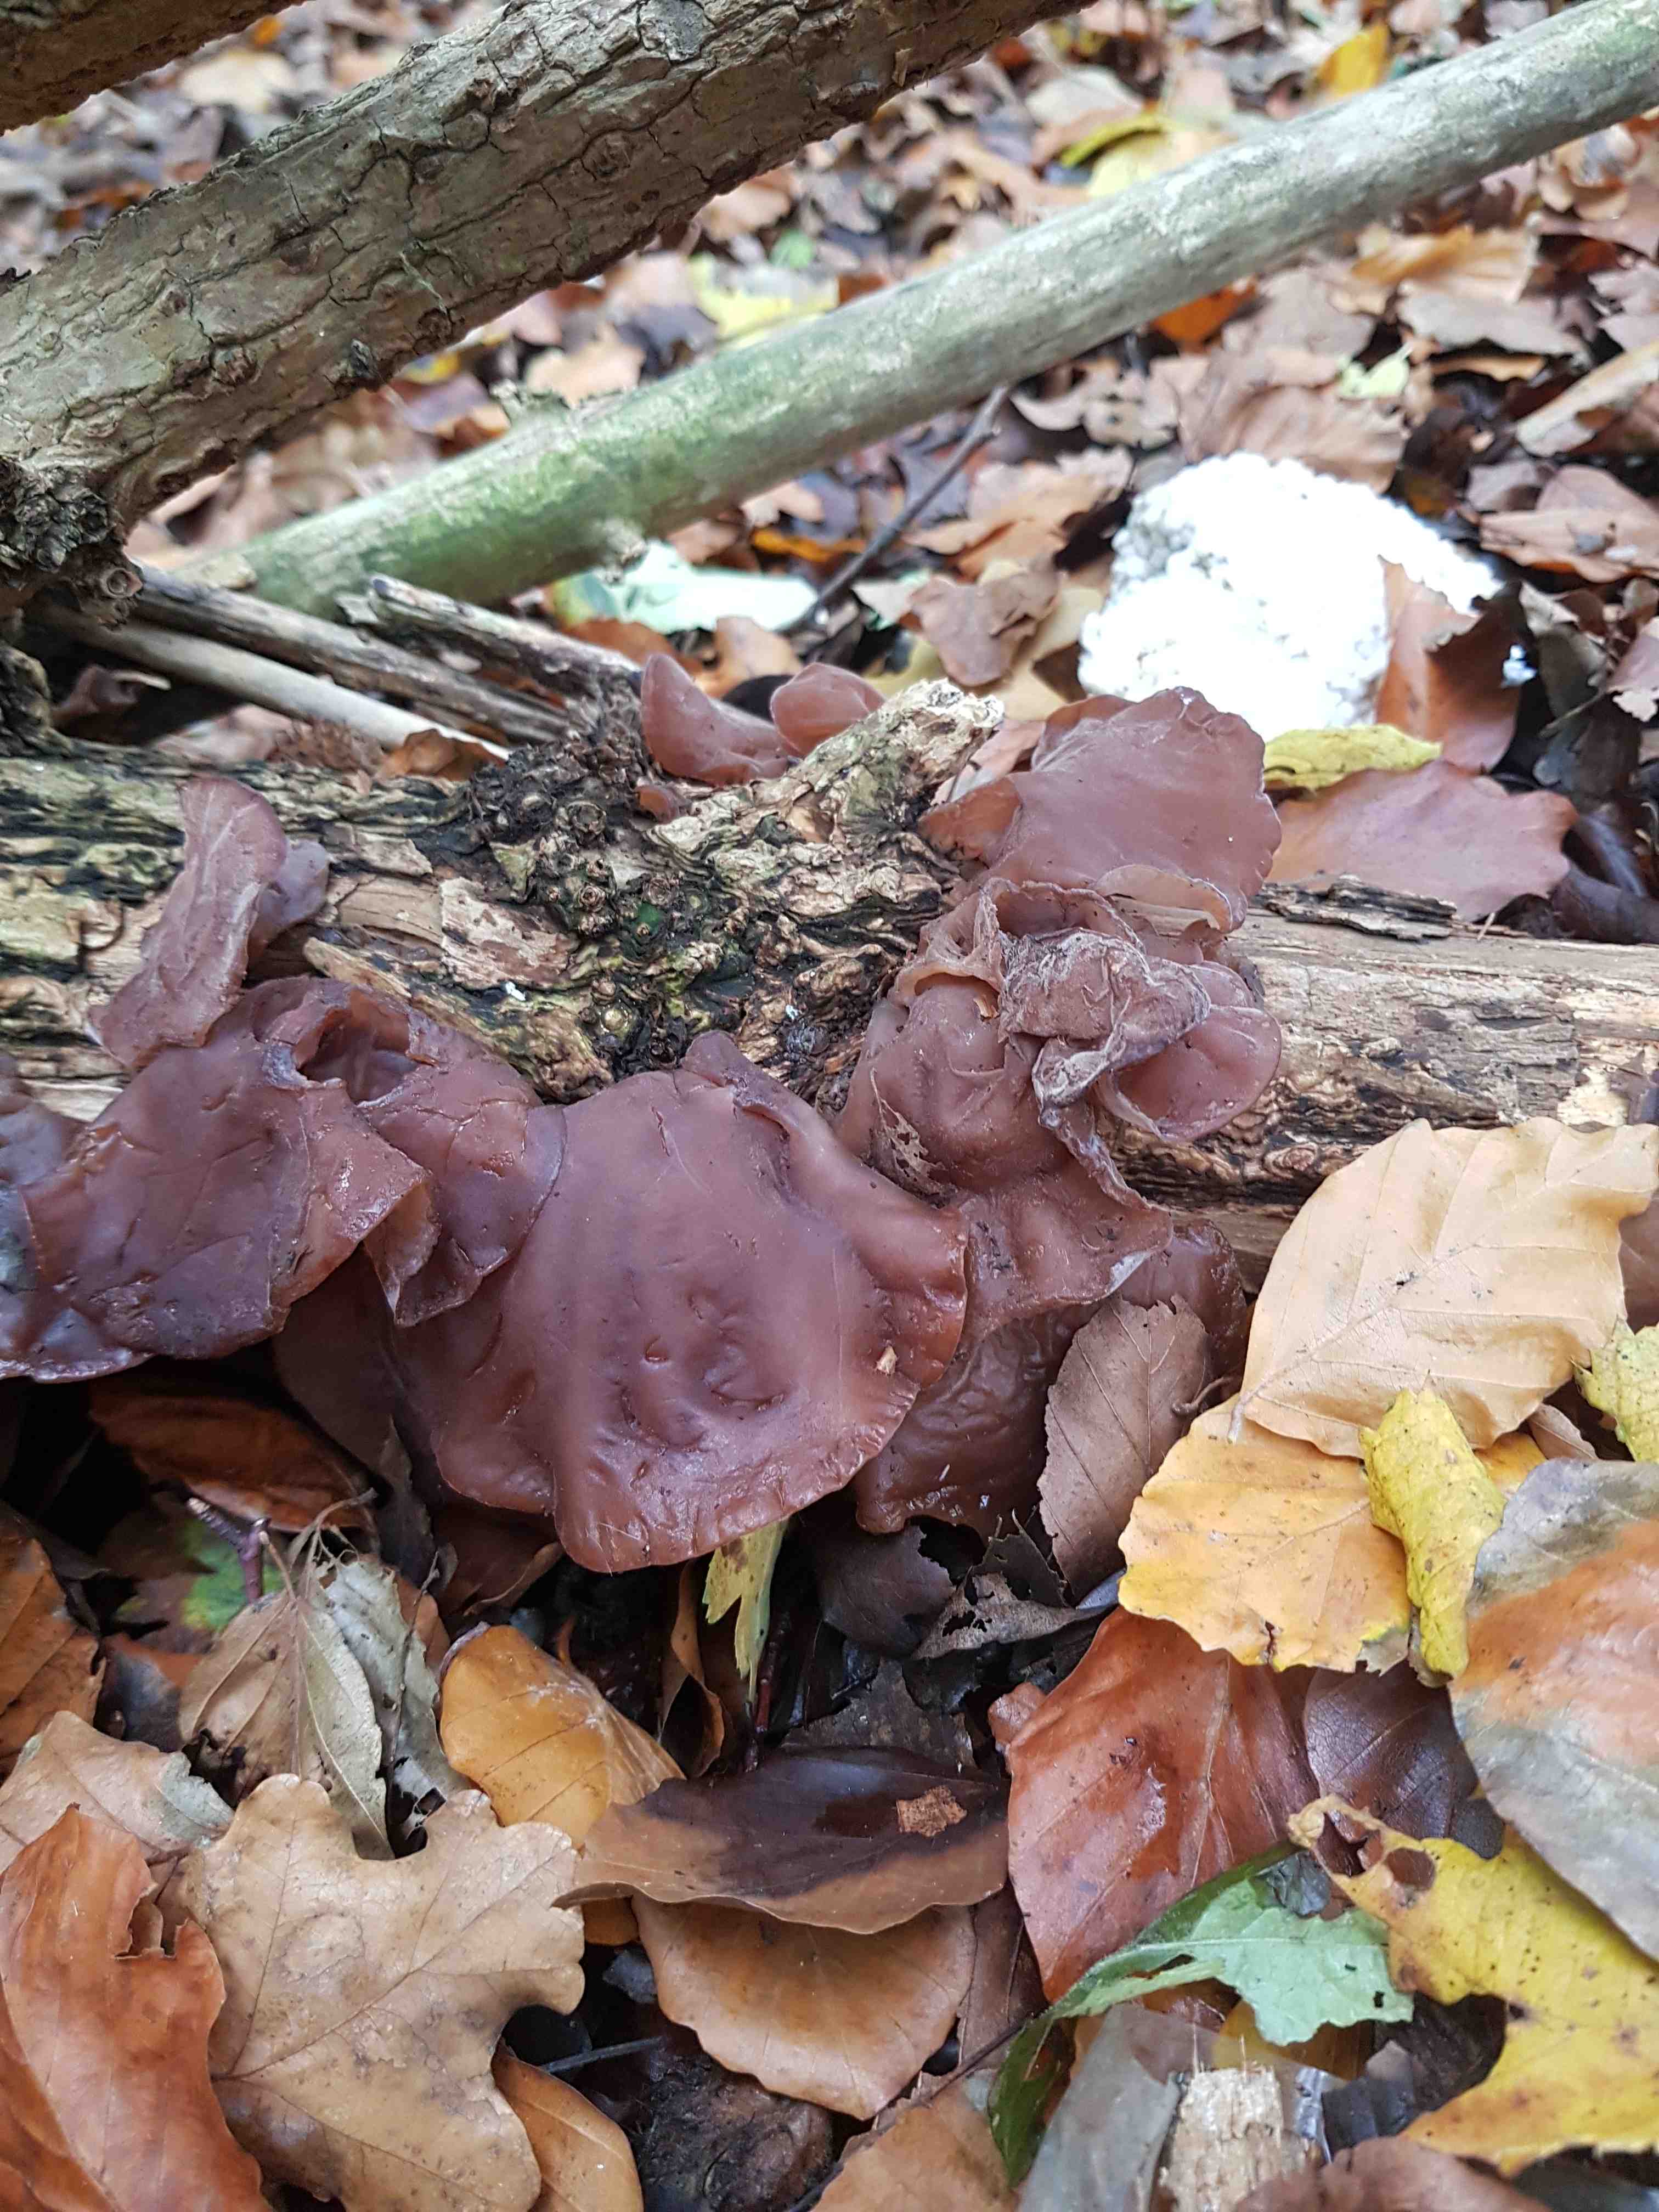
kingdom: Fungi
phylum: Basidiomycota
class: Agaricomycetes
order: Auriculariales
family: Auriculariaceae
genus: Auricularia
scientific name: Auricularia auricula-judae
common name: almindelig judasøre
